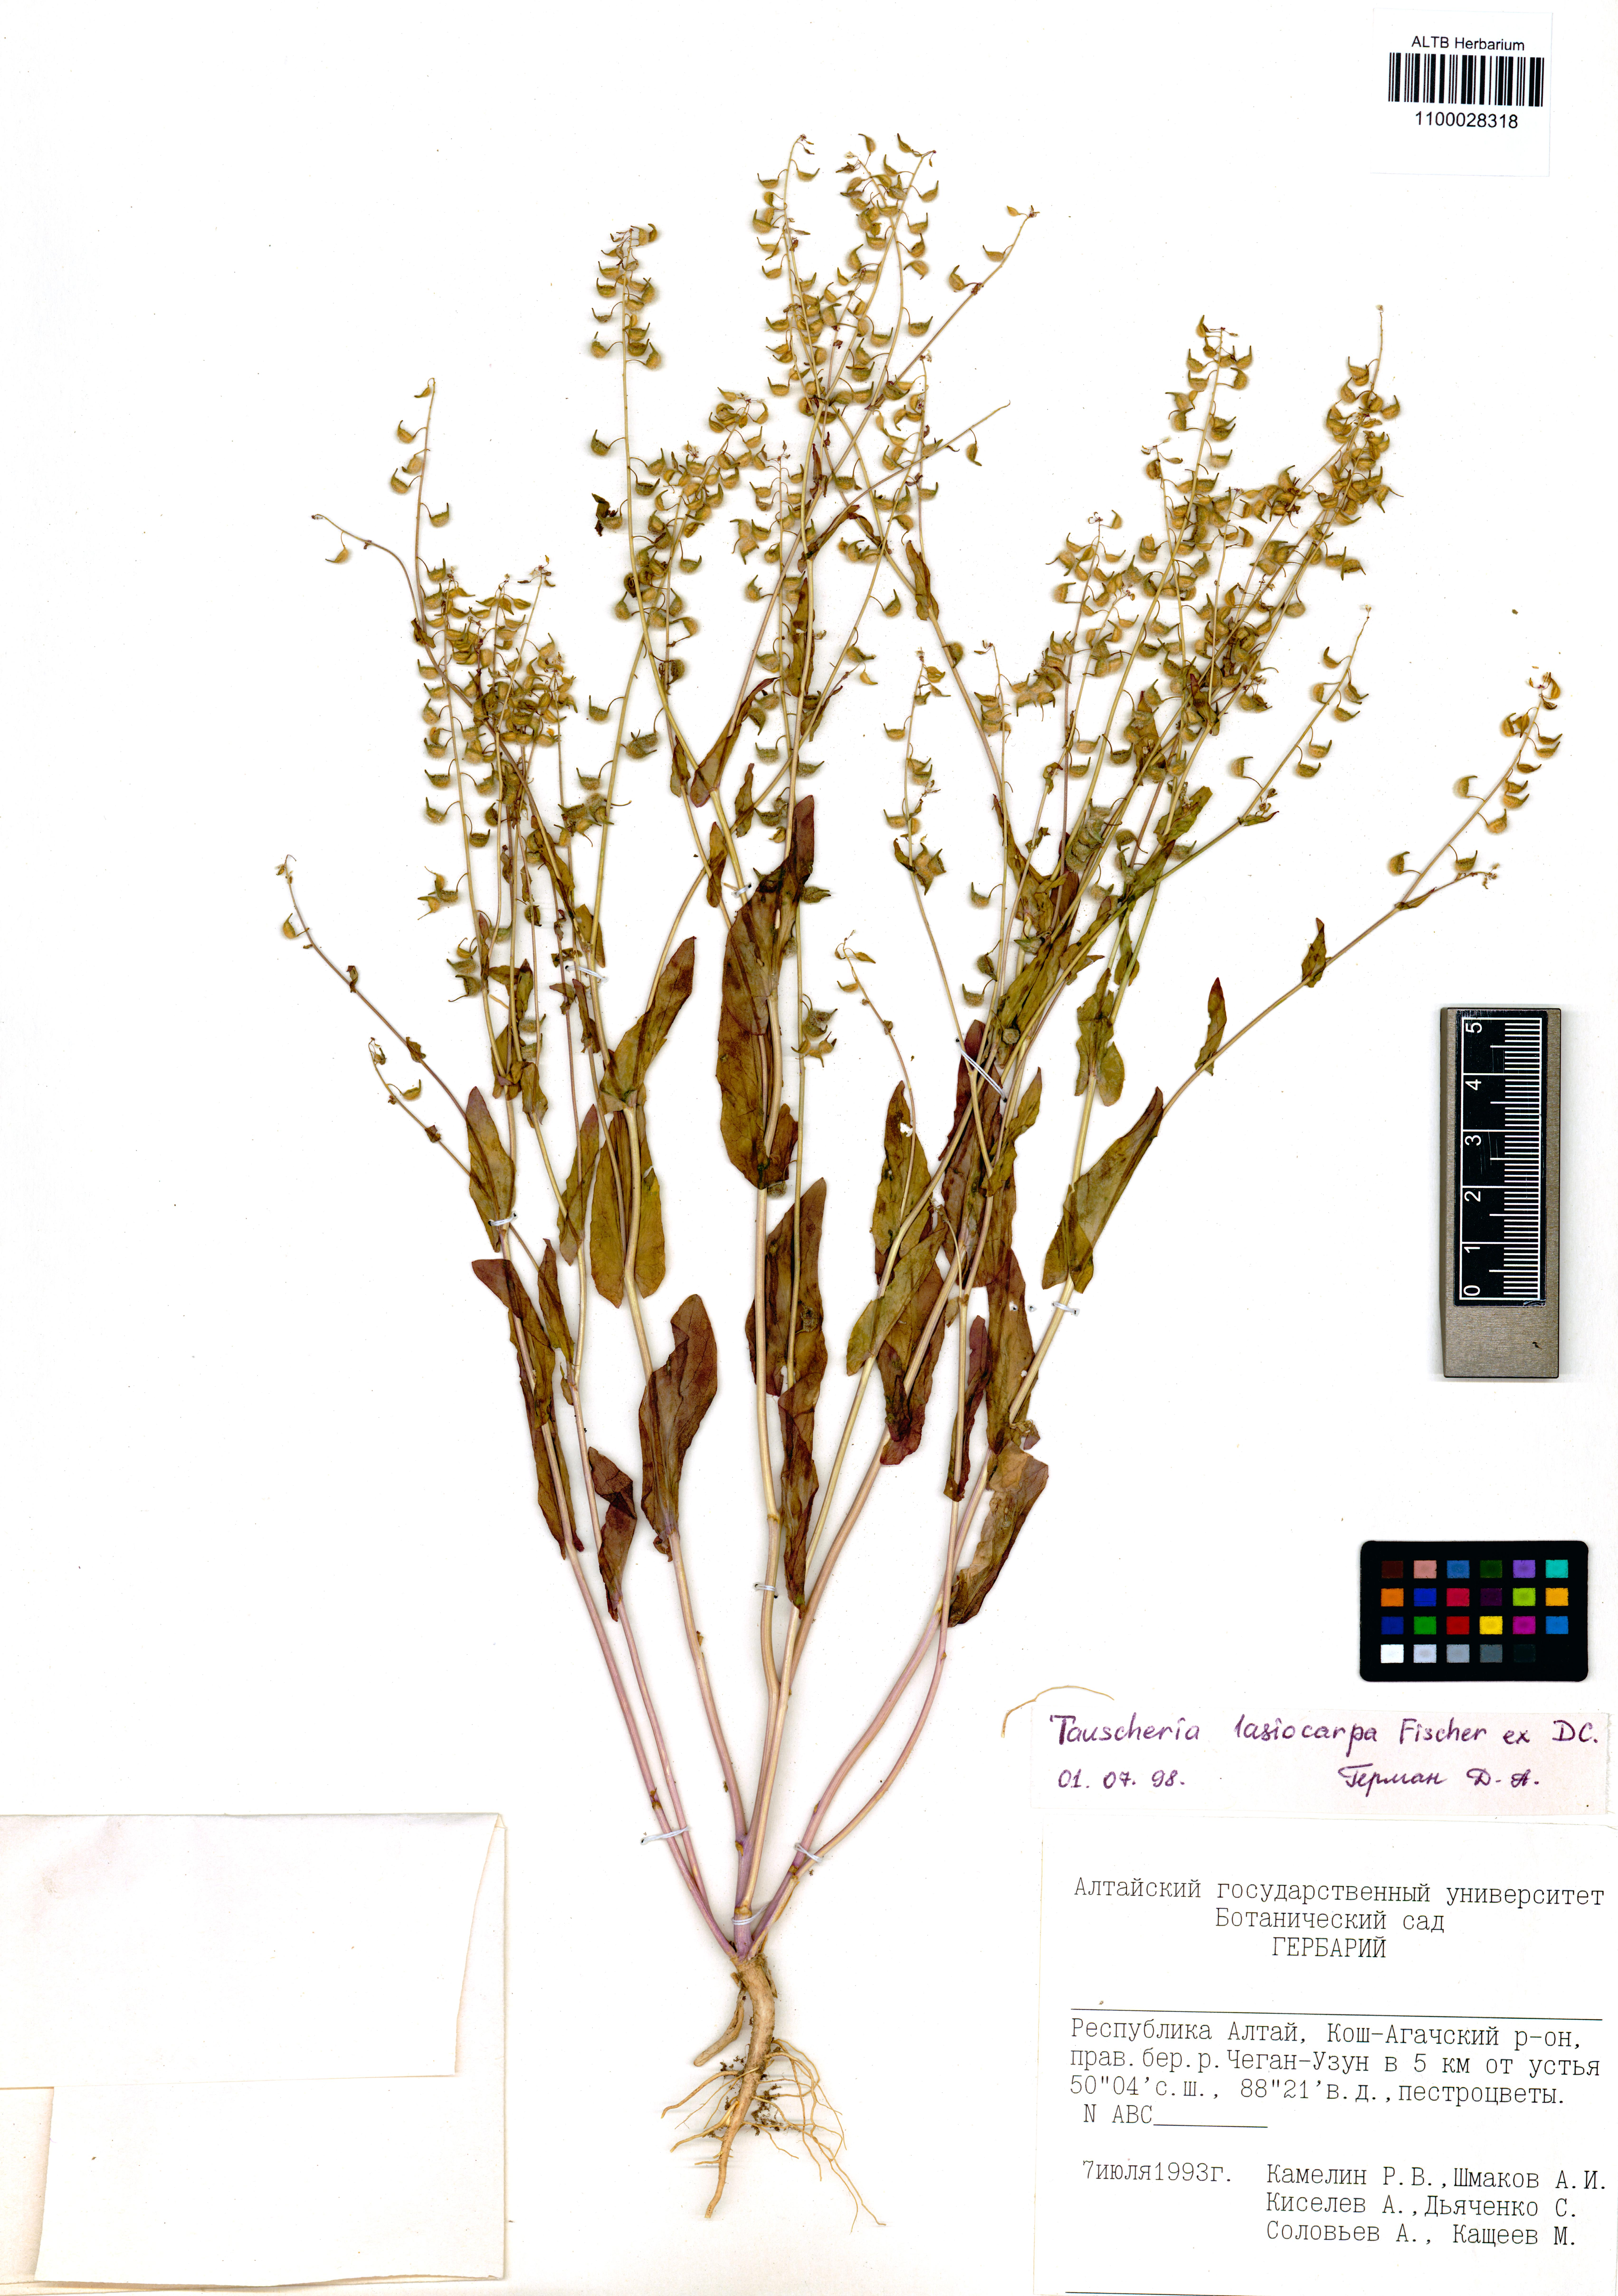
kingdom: Plantae
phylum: Tracheophyta
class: Magnoliopsida
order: Brassicales
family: Brassicaceae
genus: Tauscheria
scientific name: Tauscheria lasiocarpa
